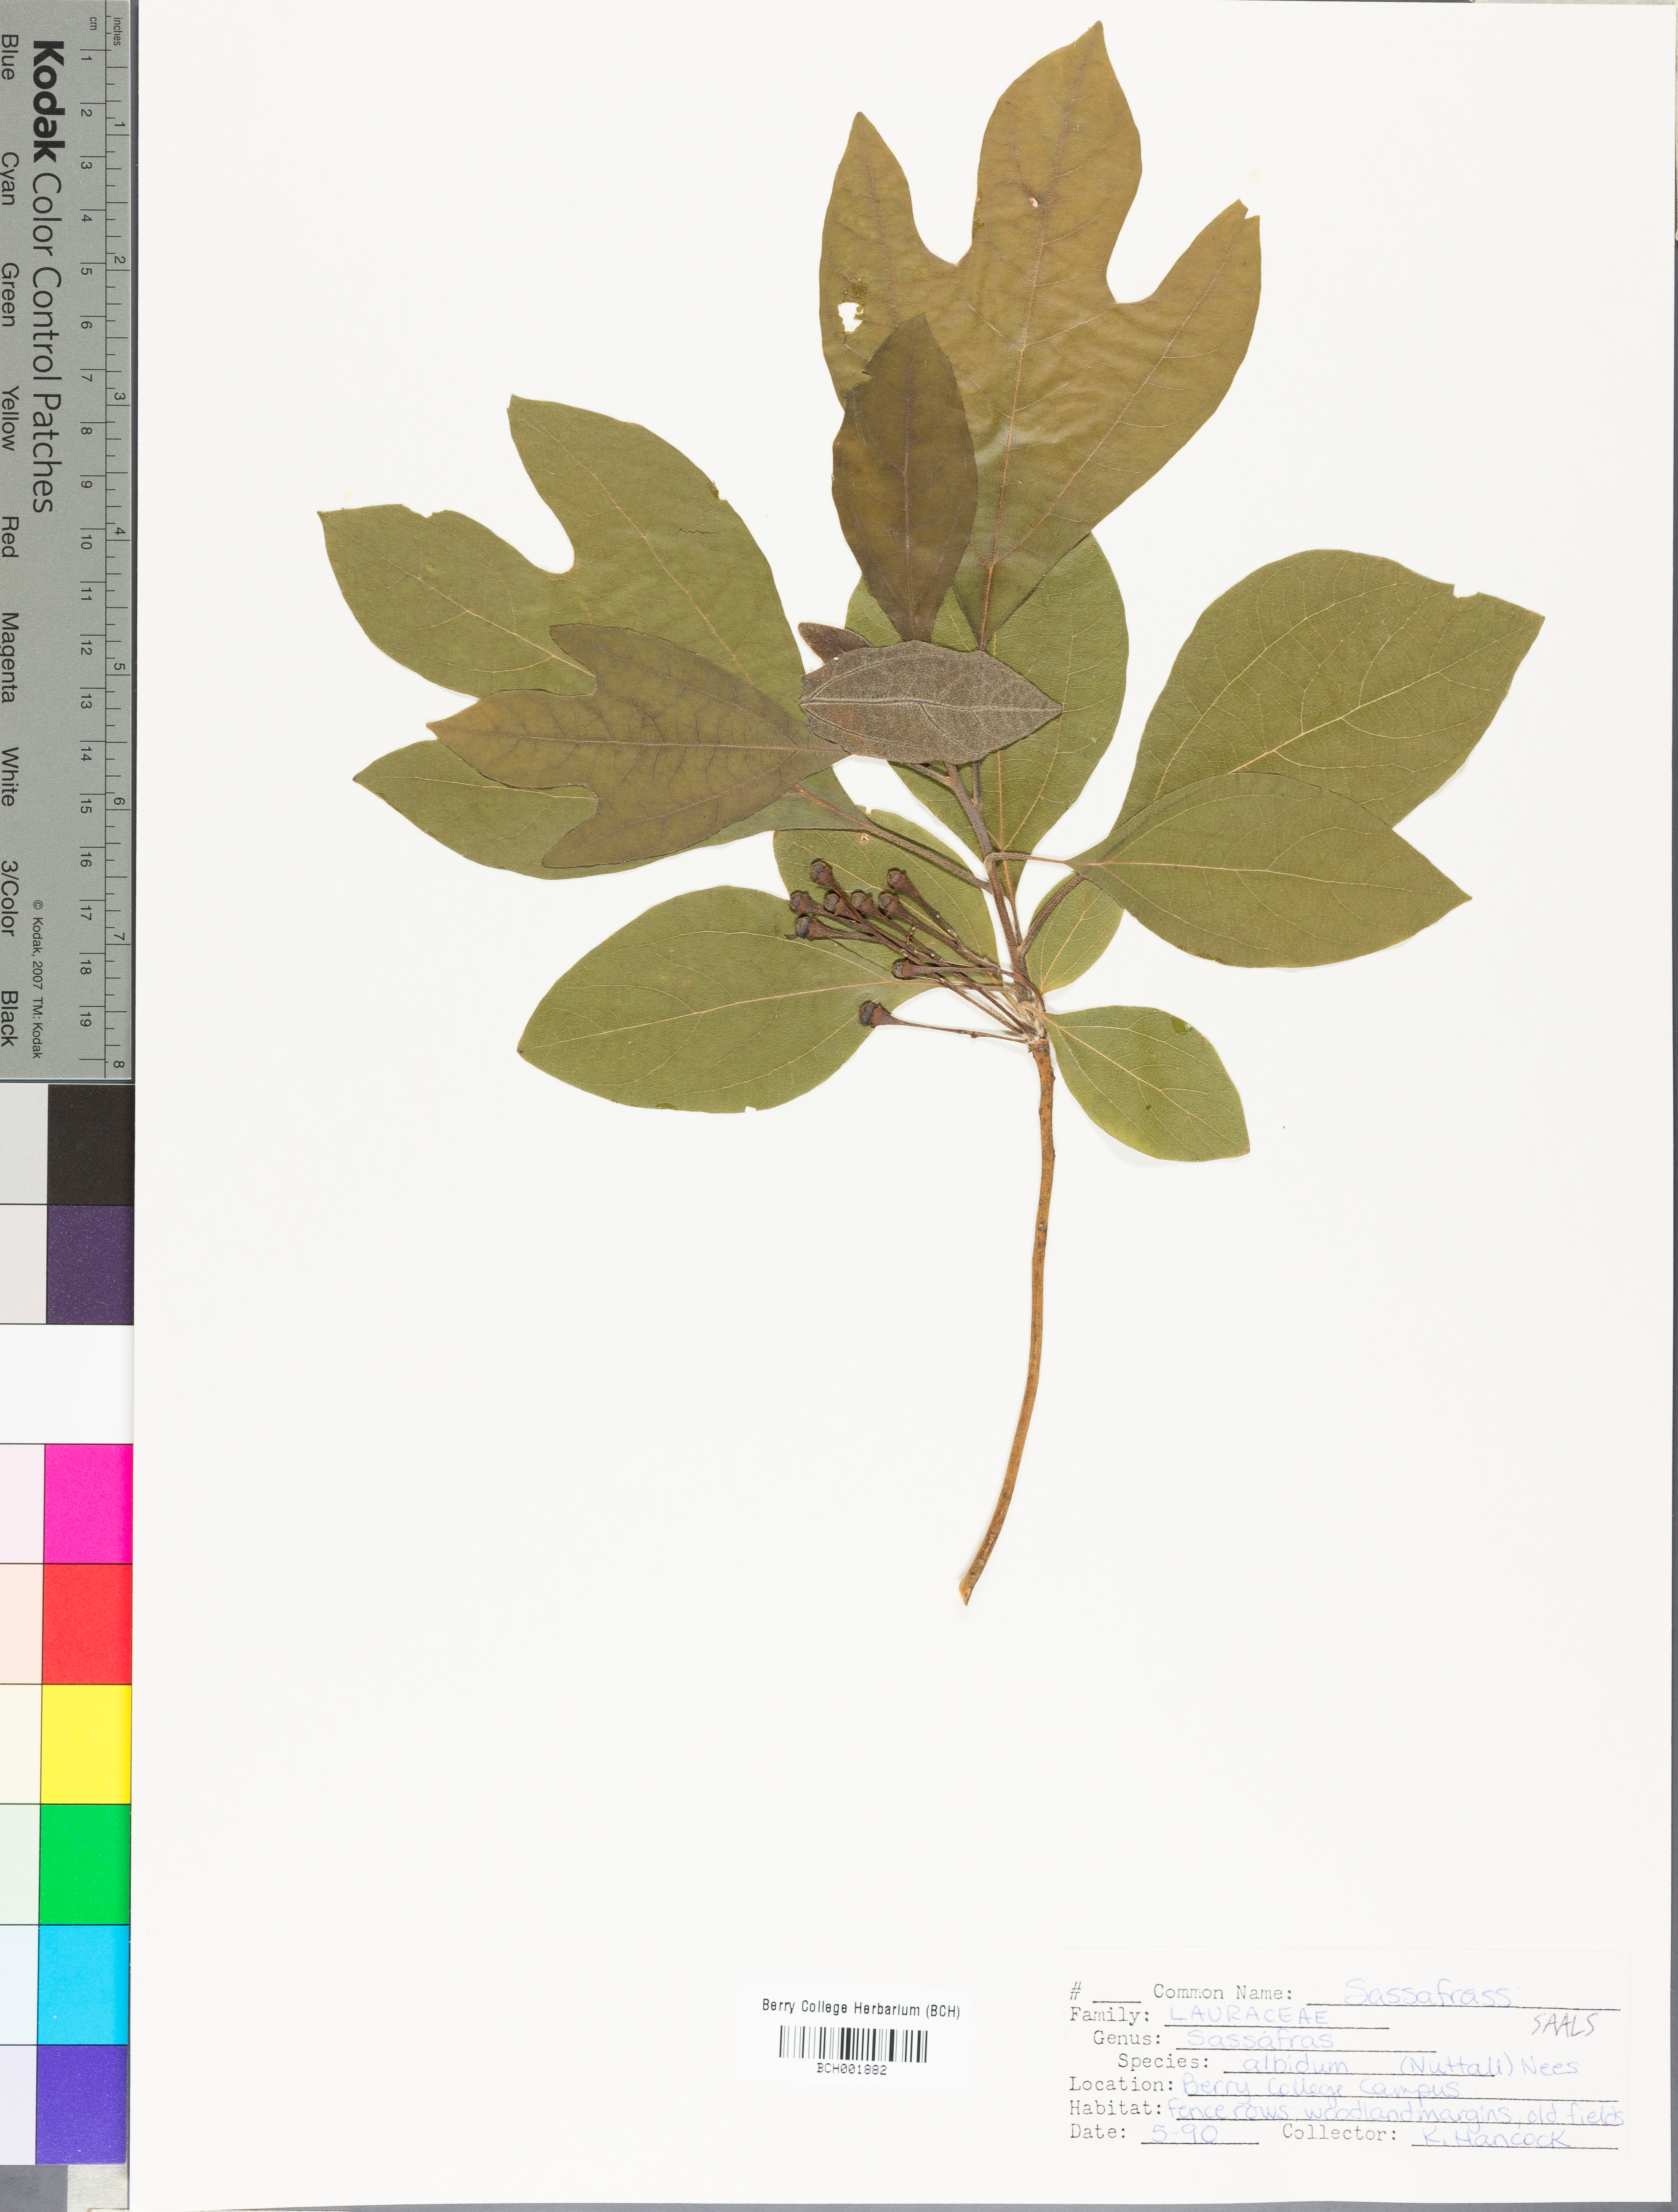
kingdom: Plantae
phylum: Tracheophyta
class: Magnoliopsida
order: Laurales
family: Lauraceae
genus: Sassafras
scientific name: Sassafras albidum
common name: Sassafras
